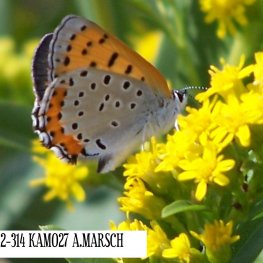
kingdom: Animalia
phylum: Arthropoda
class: Insecta
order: Lepidoptera
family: Sesiidae
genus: Sesia
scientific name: Sesia Lycaena hyllus
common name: Bronze Copper
